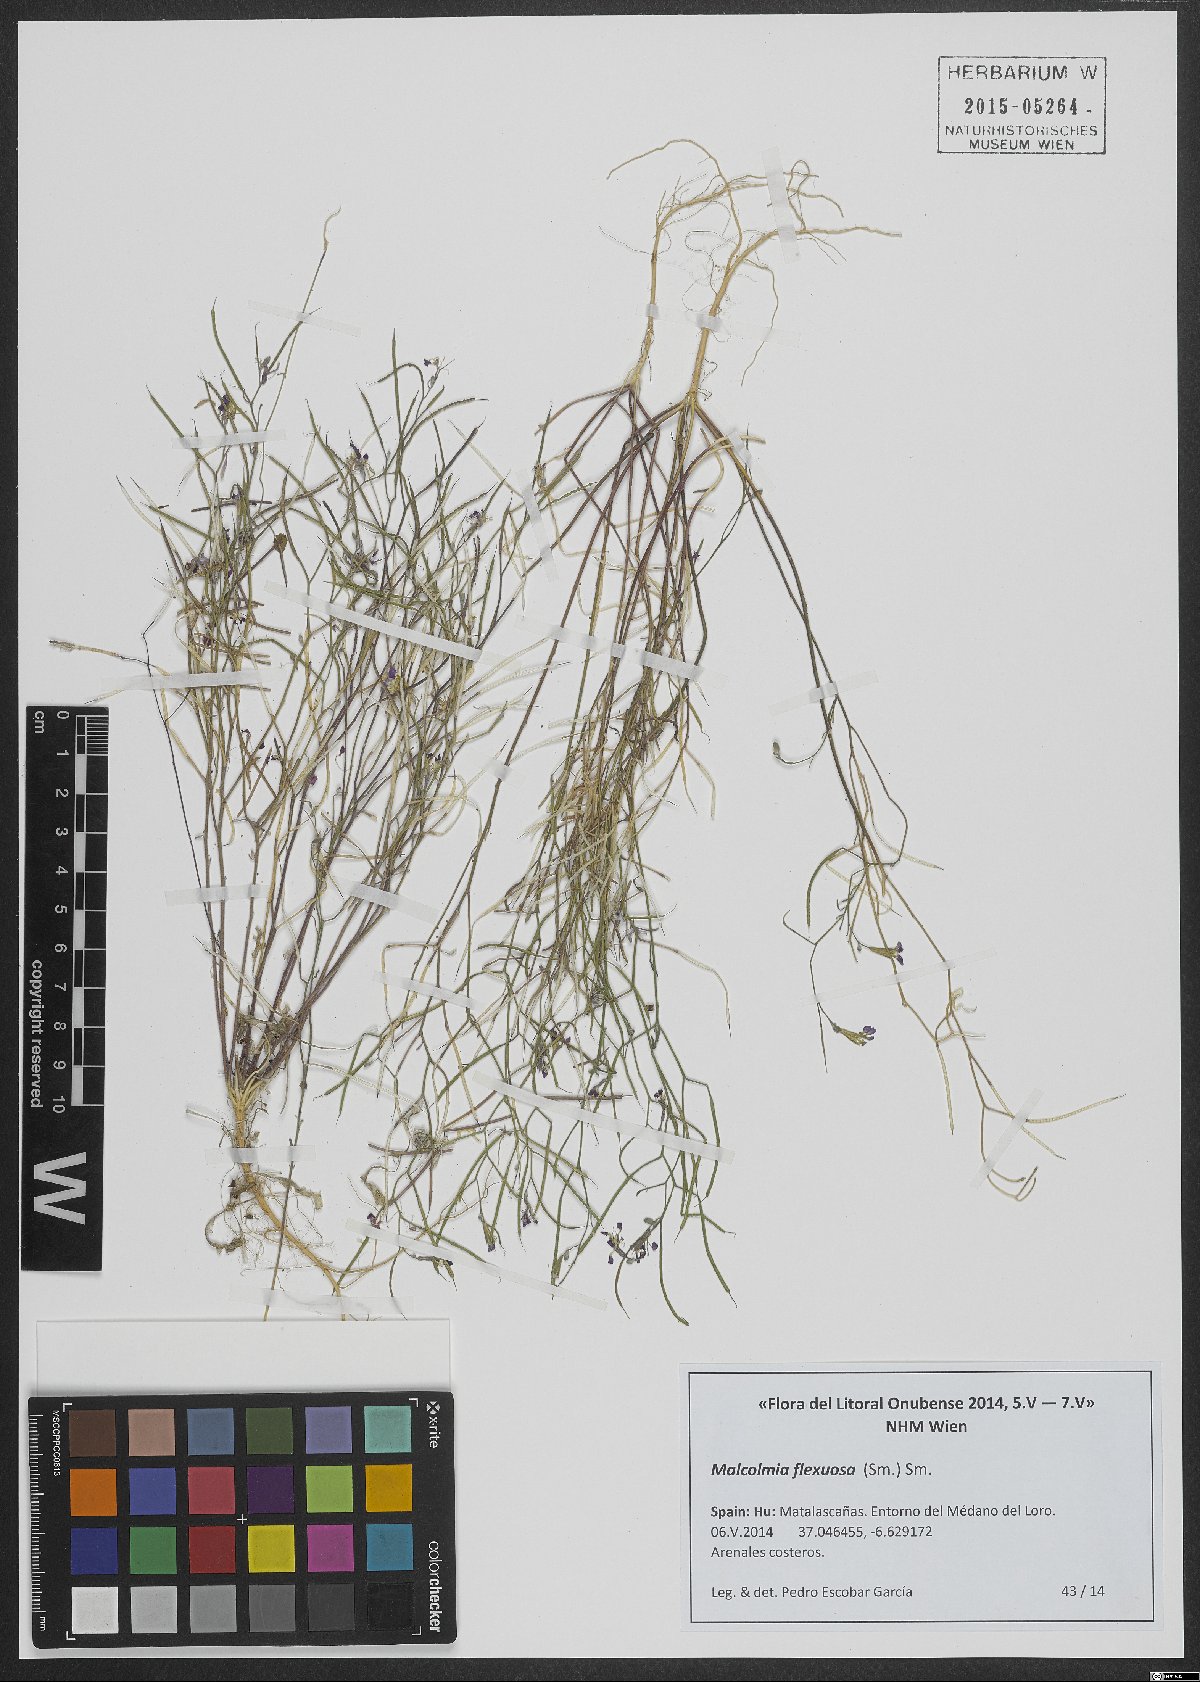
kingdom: Plantae
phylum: Tracheophyta
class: Magnoliopsida
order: Brassicales
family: Brassicaceae
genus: Malcolmia
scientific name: Malcolmia flexuosa
